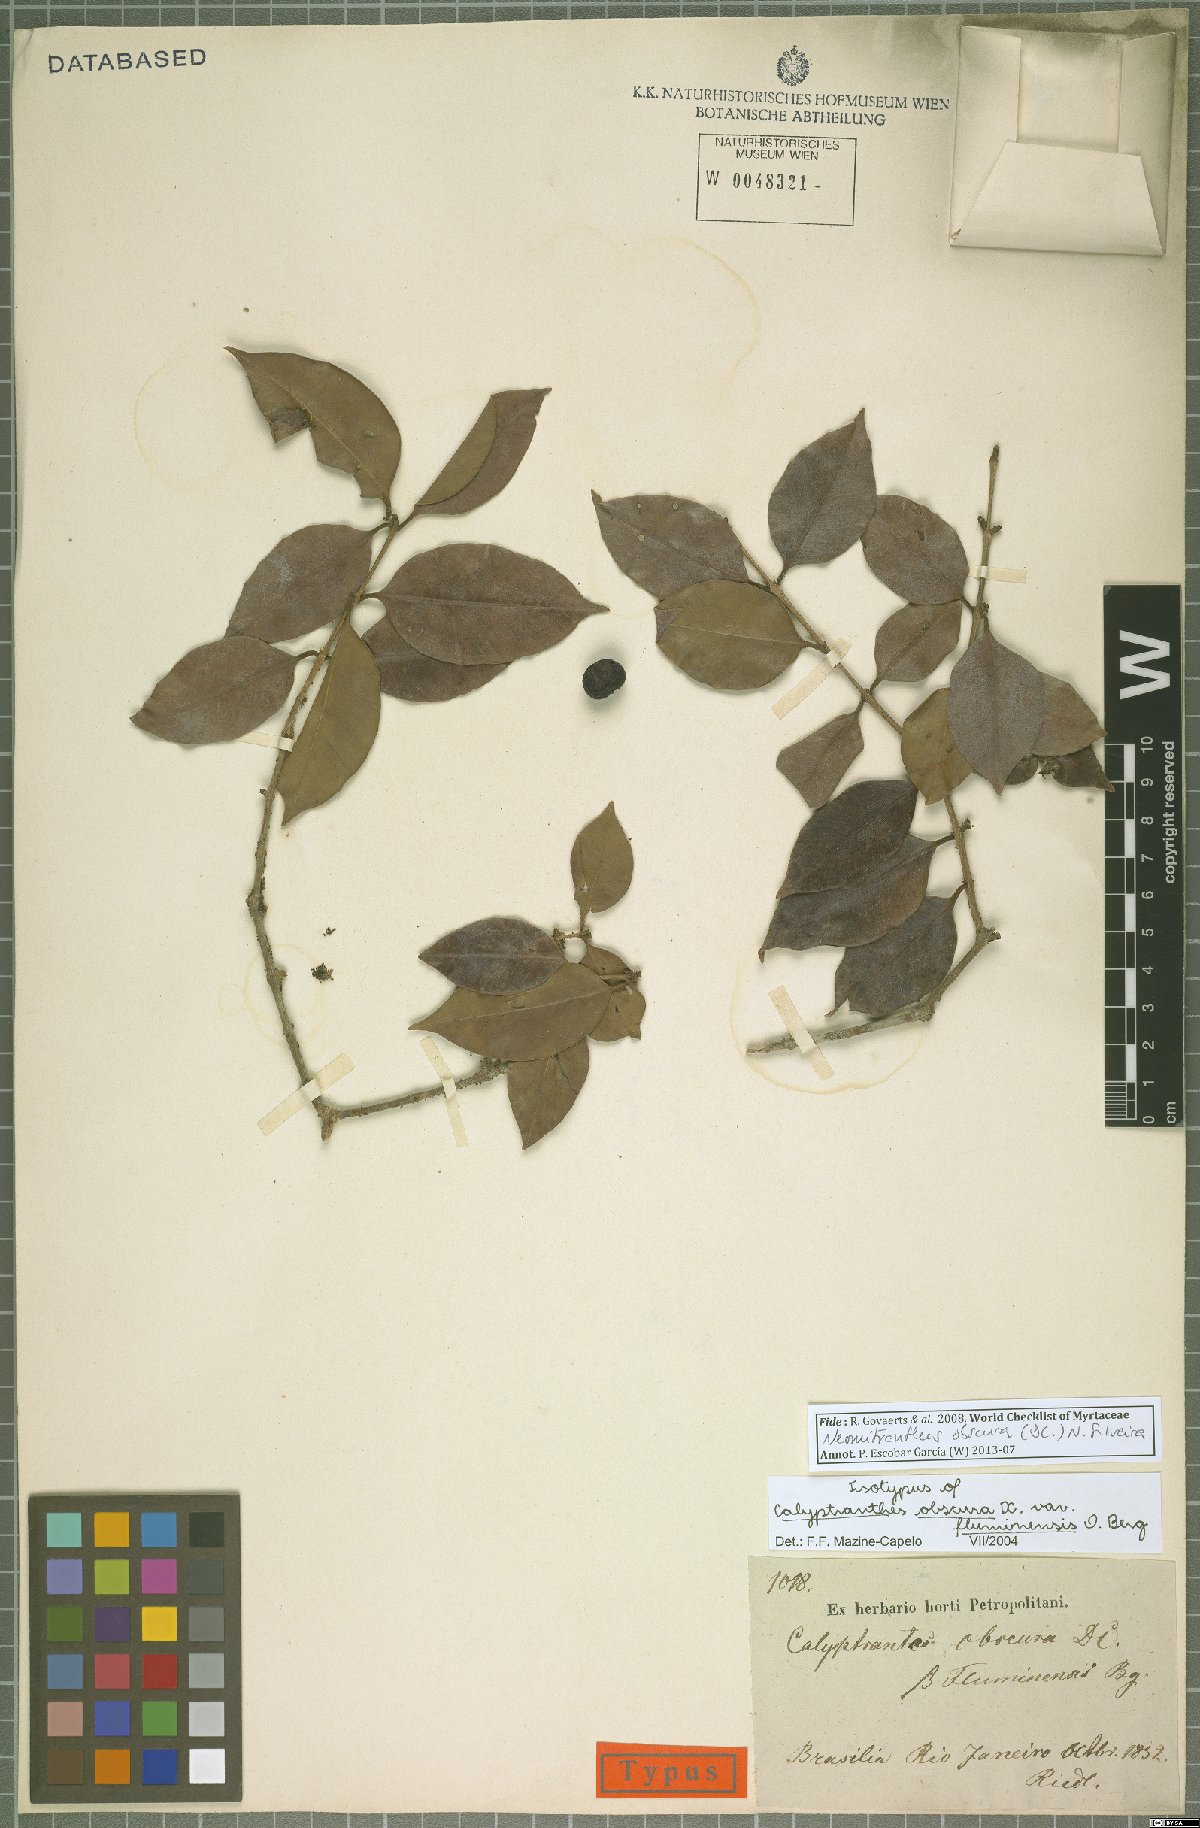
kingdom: Plantae
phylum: Tracheophyta
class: Magnoliopsida
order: Myrtales
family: Myrtaceae
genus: Neomitranthes
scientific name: Neomitranthes obscura
